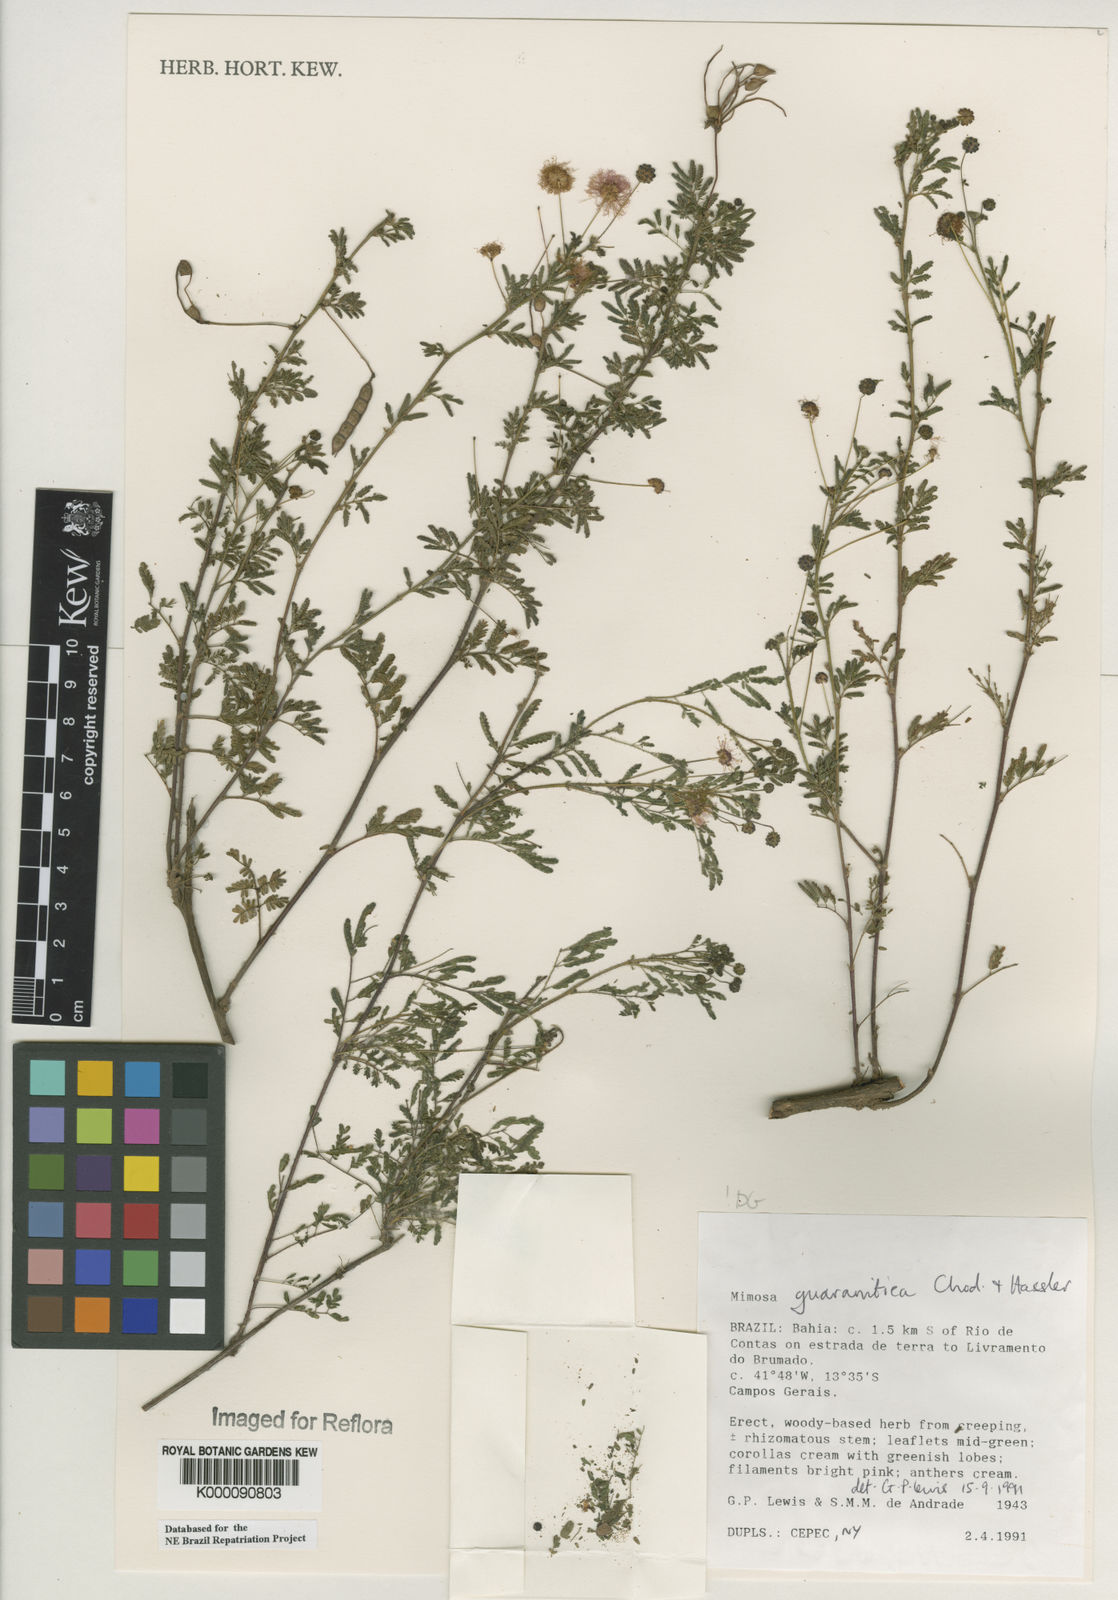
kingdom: Plantae
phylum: Tracheophyta
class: Magnoliopsida
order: Fabales
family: Fabaceae
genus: Mimosa
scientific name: Mimosa guaranitica
